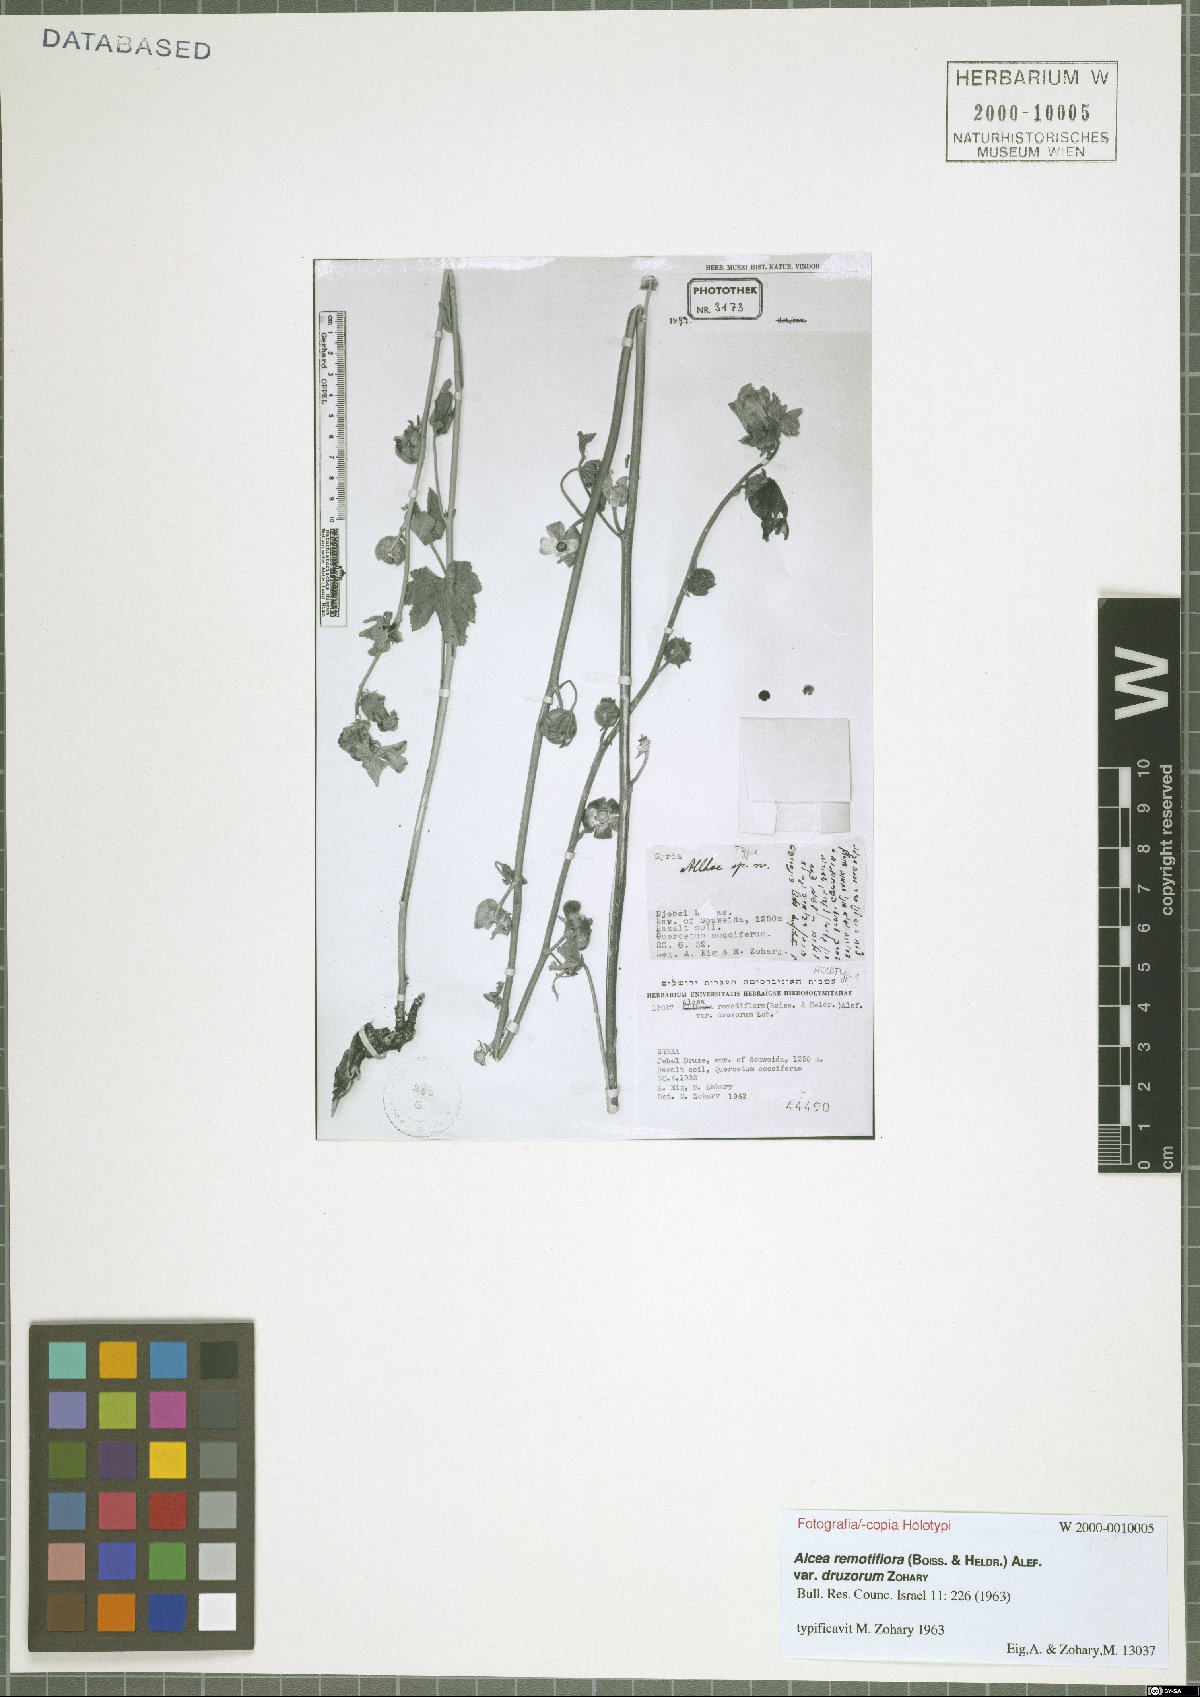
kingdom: Plantae
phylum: Tracheophyta
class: Magnoliopsida
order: Malvales
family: Malvaceae
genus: Alcea
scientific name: Alcea remotiflora
